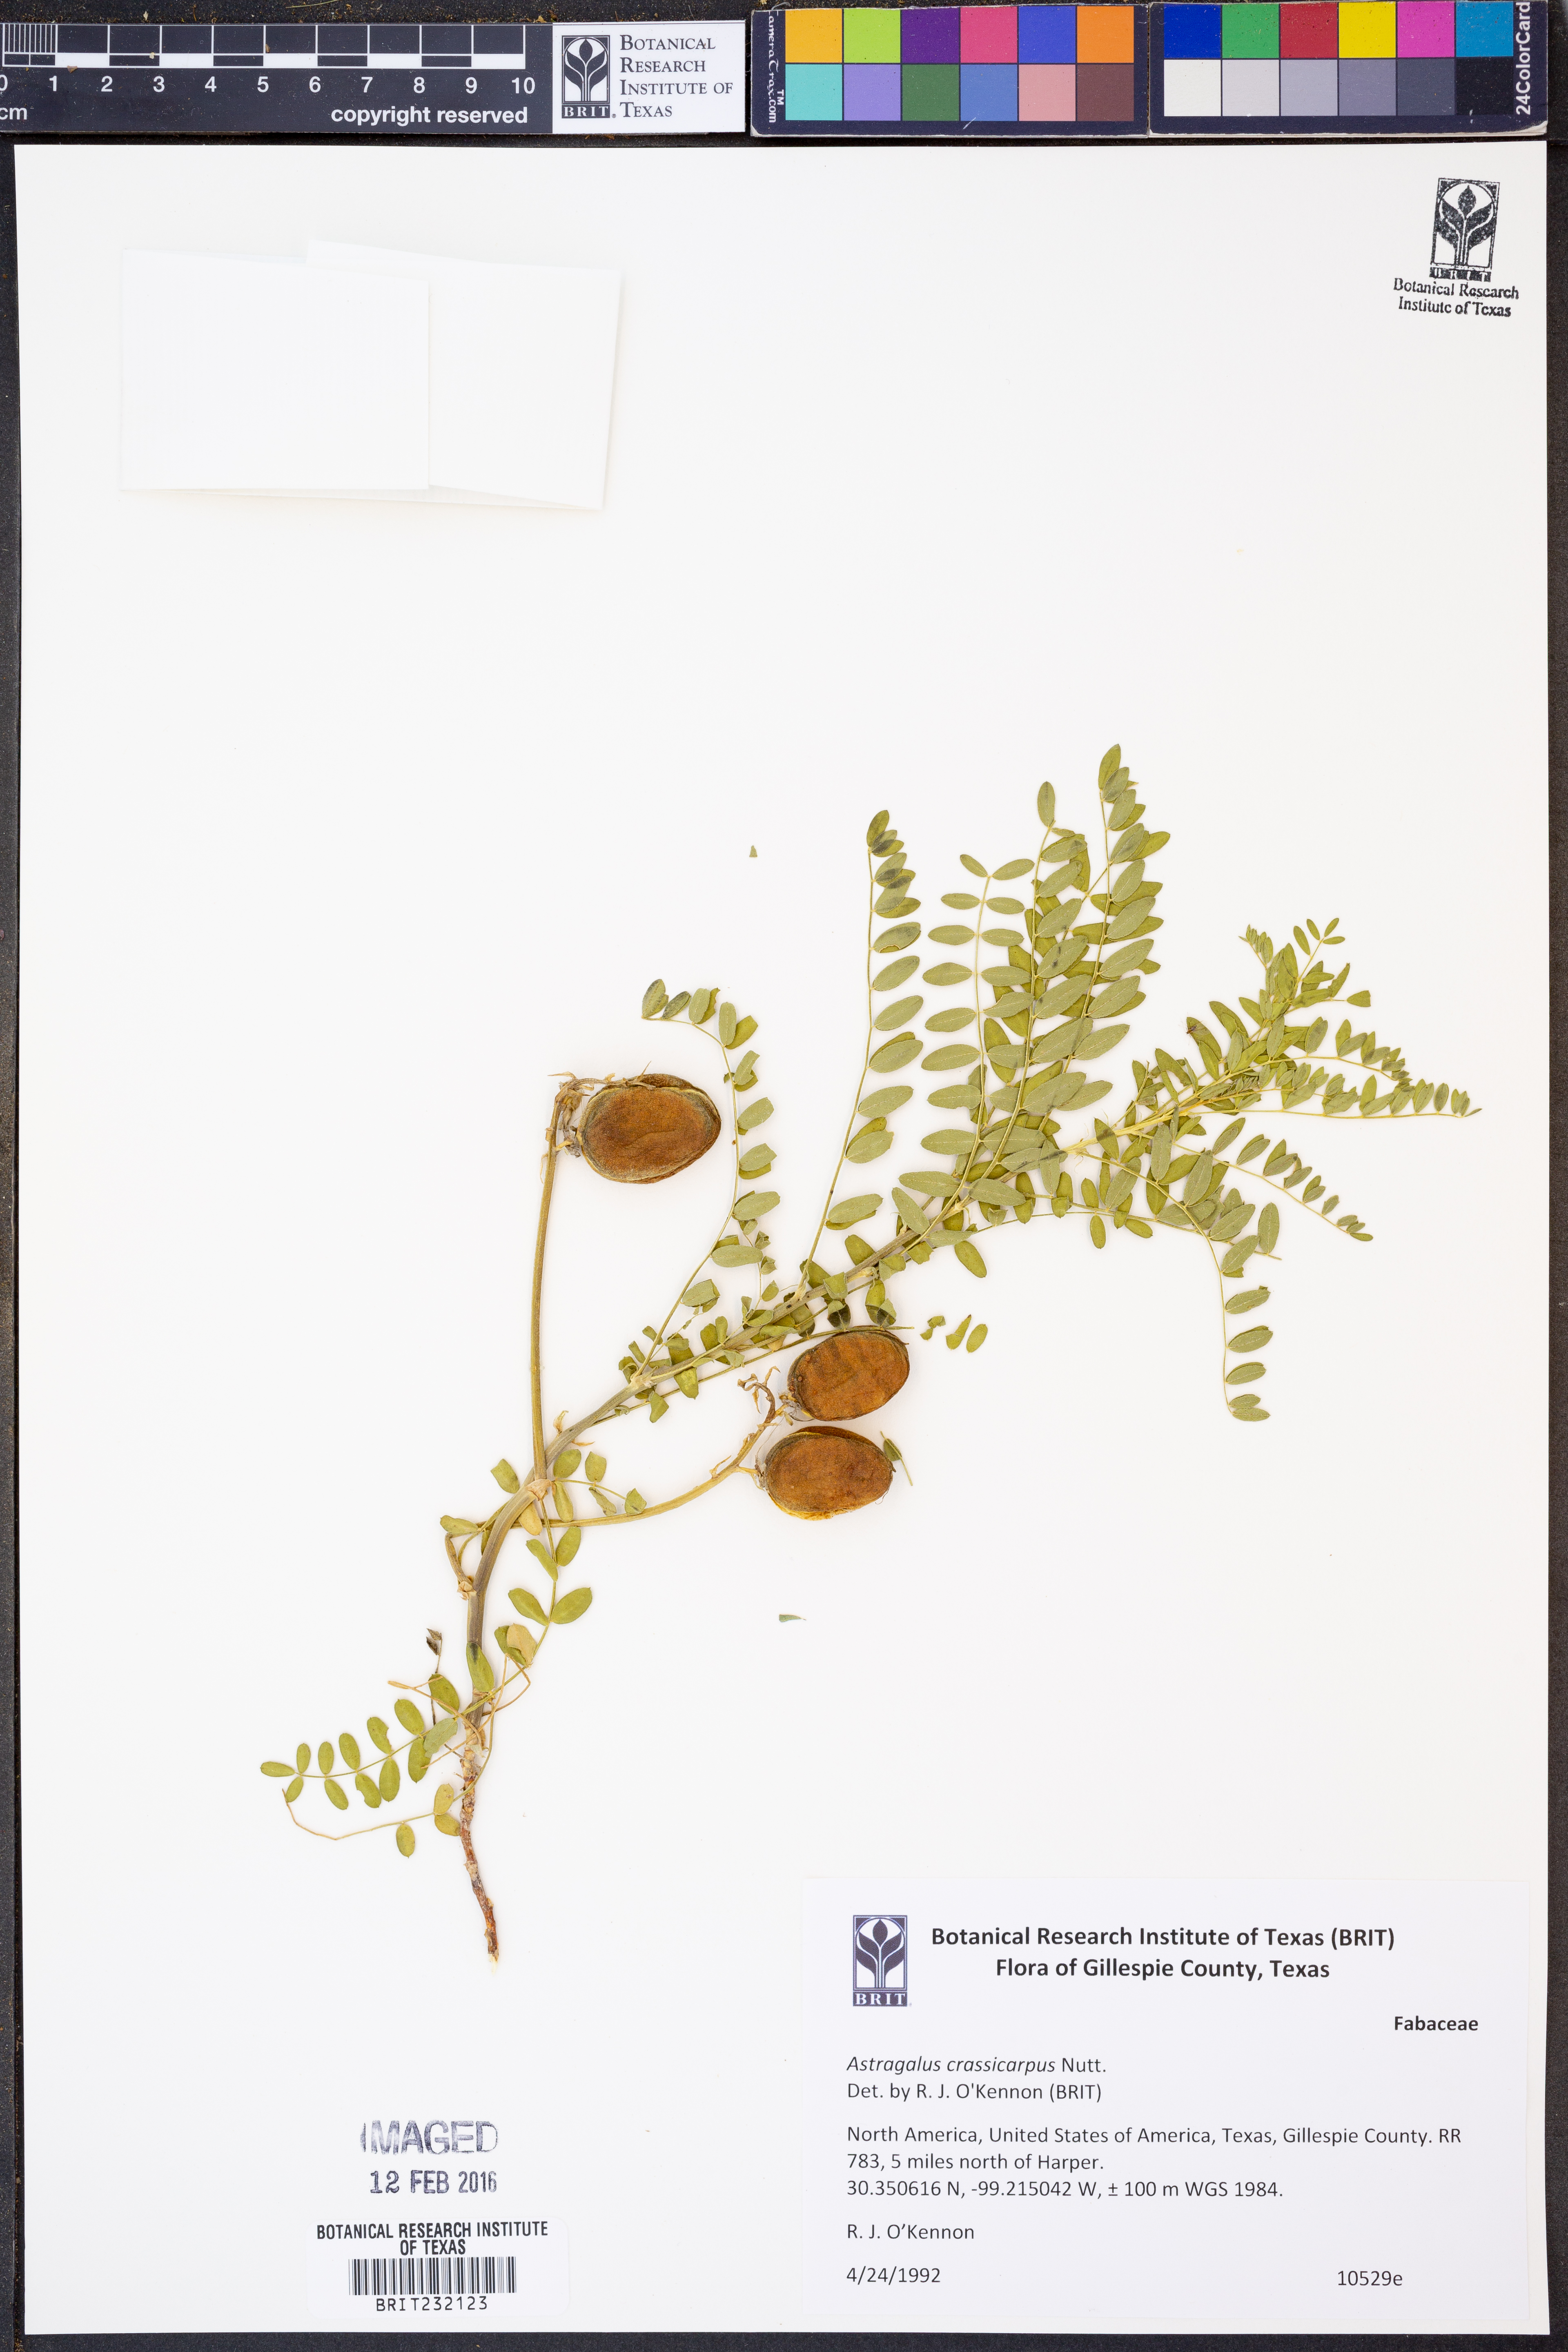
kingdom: Plantae
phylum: Tracheophyta
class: Magnoliopsida
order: Fabales
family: Fabaceae
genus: Astragalus
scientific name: Astragalus crassicarpus
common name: Ground-plum milk-vetch
